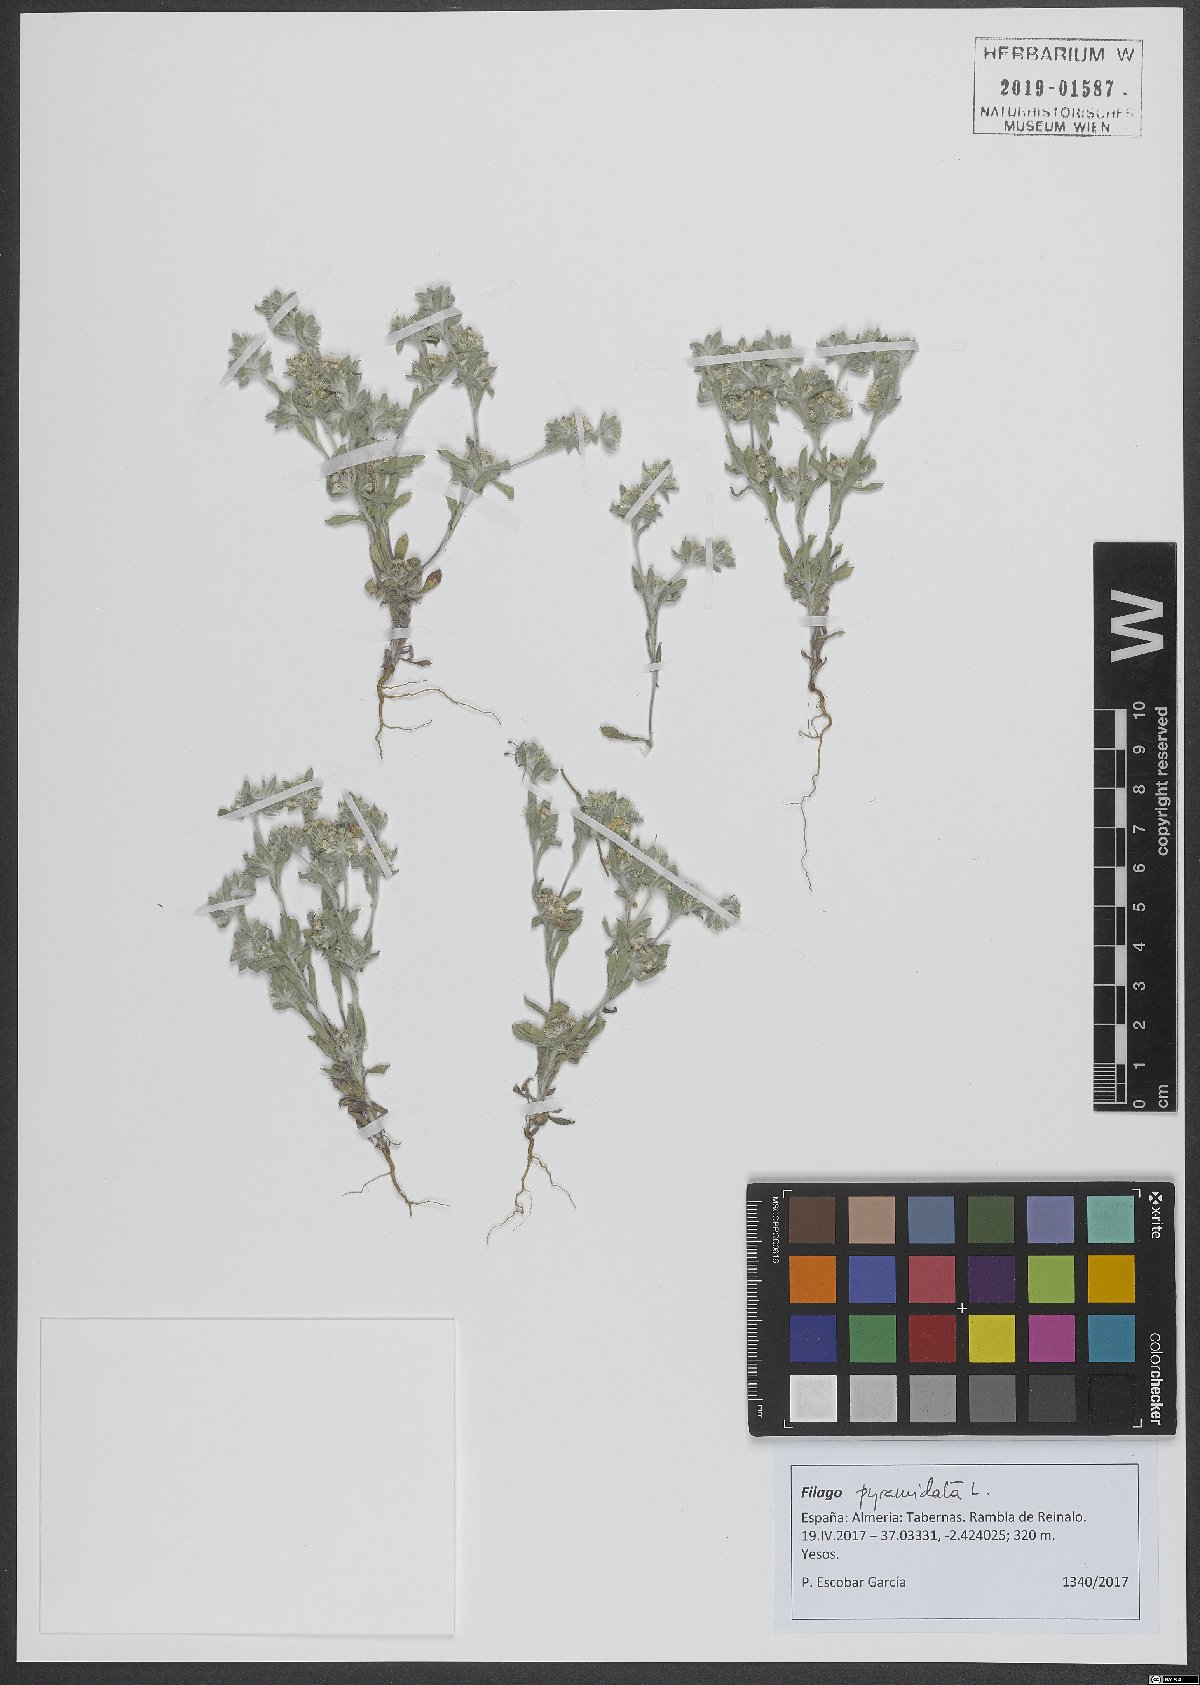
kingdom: Plantae
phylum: Tracheophyta
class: Magnoliopsida
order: Asterales
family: Asteraceae
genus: Filago
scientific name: Filago pyramidata
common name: Broad-leaved cudweed
